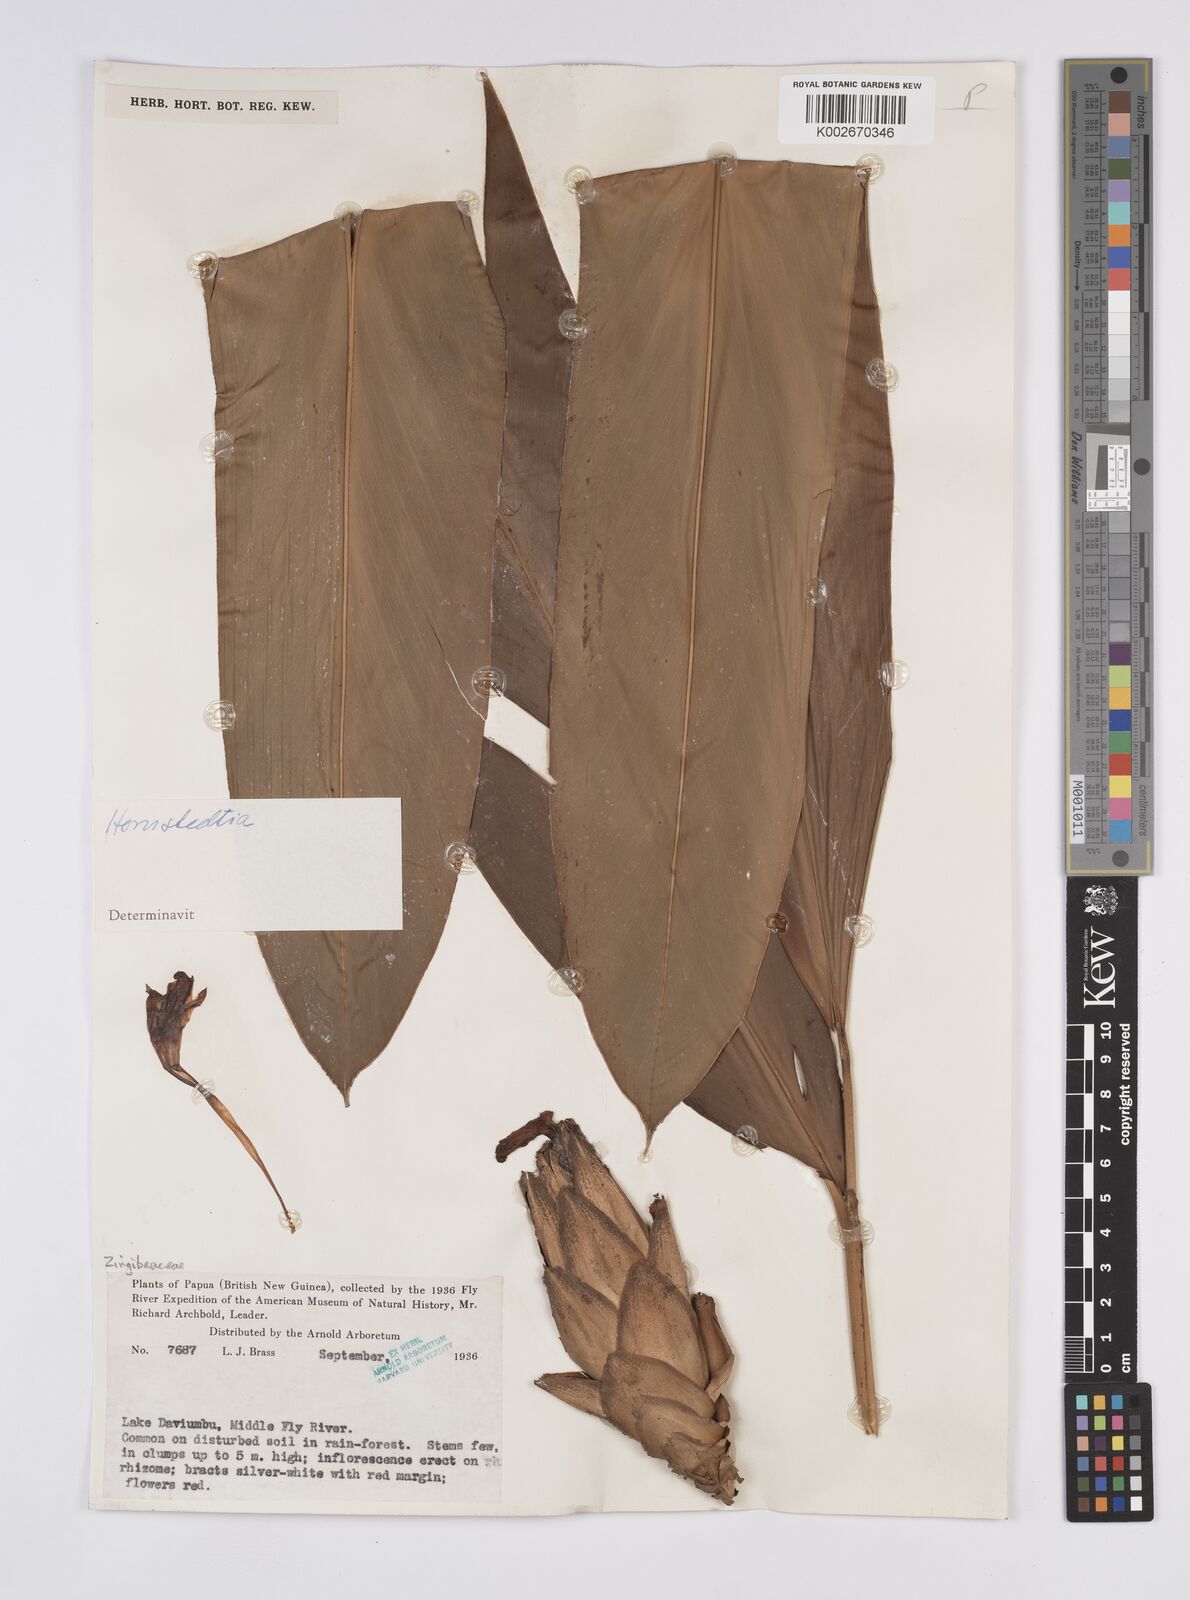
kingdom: Plantae
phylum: Tracheophyta
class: Liliopsida
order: Zingiberales
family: Zingiberaceae
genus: Hornstedtia
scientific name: Hornstedtia
